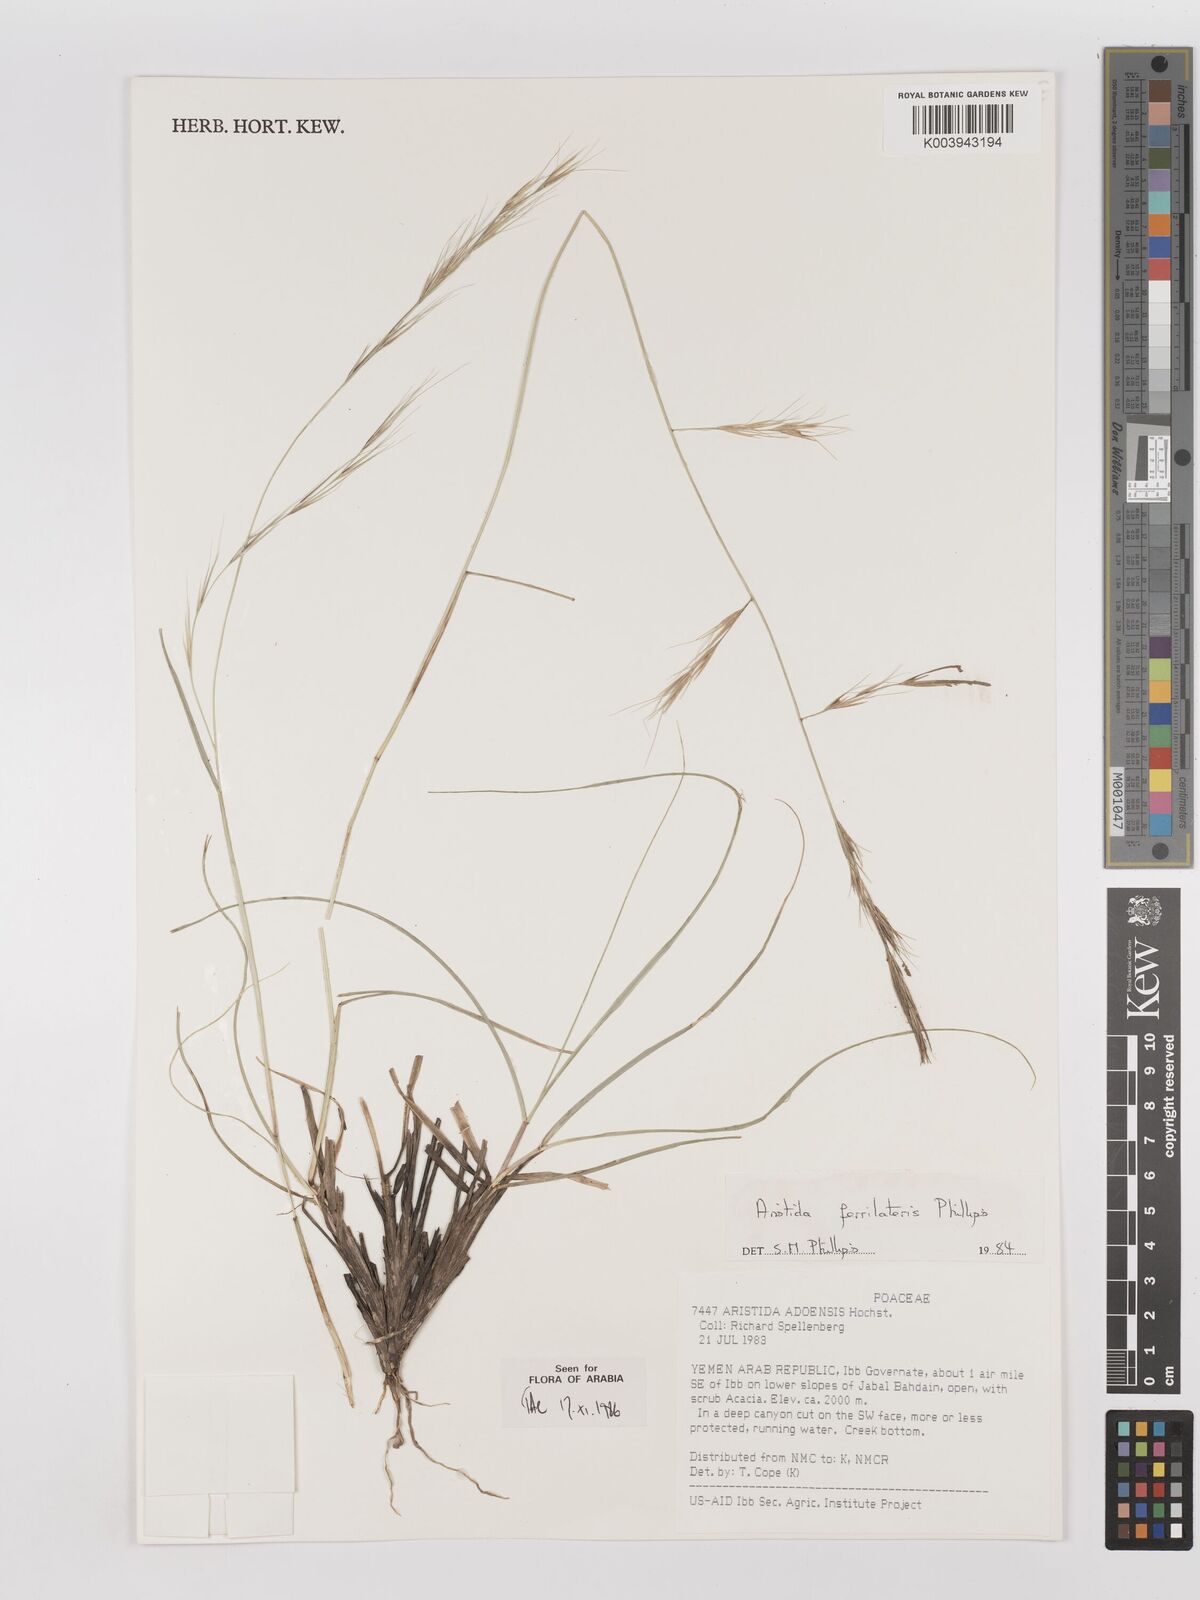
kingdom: Plantae
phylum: Tracheophyta
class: Liliopsida
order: Poales
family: Poaceae
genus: Aristida
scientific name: Aristida ferrilateris
